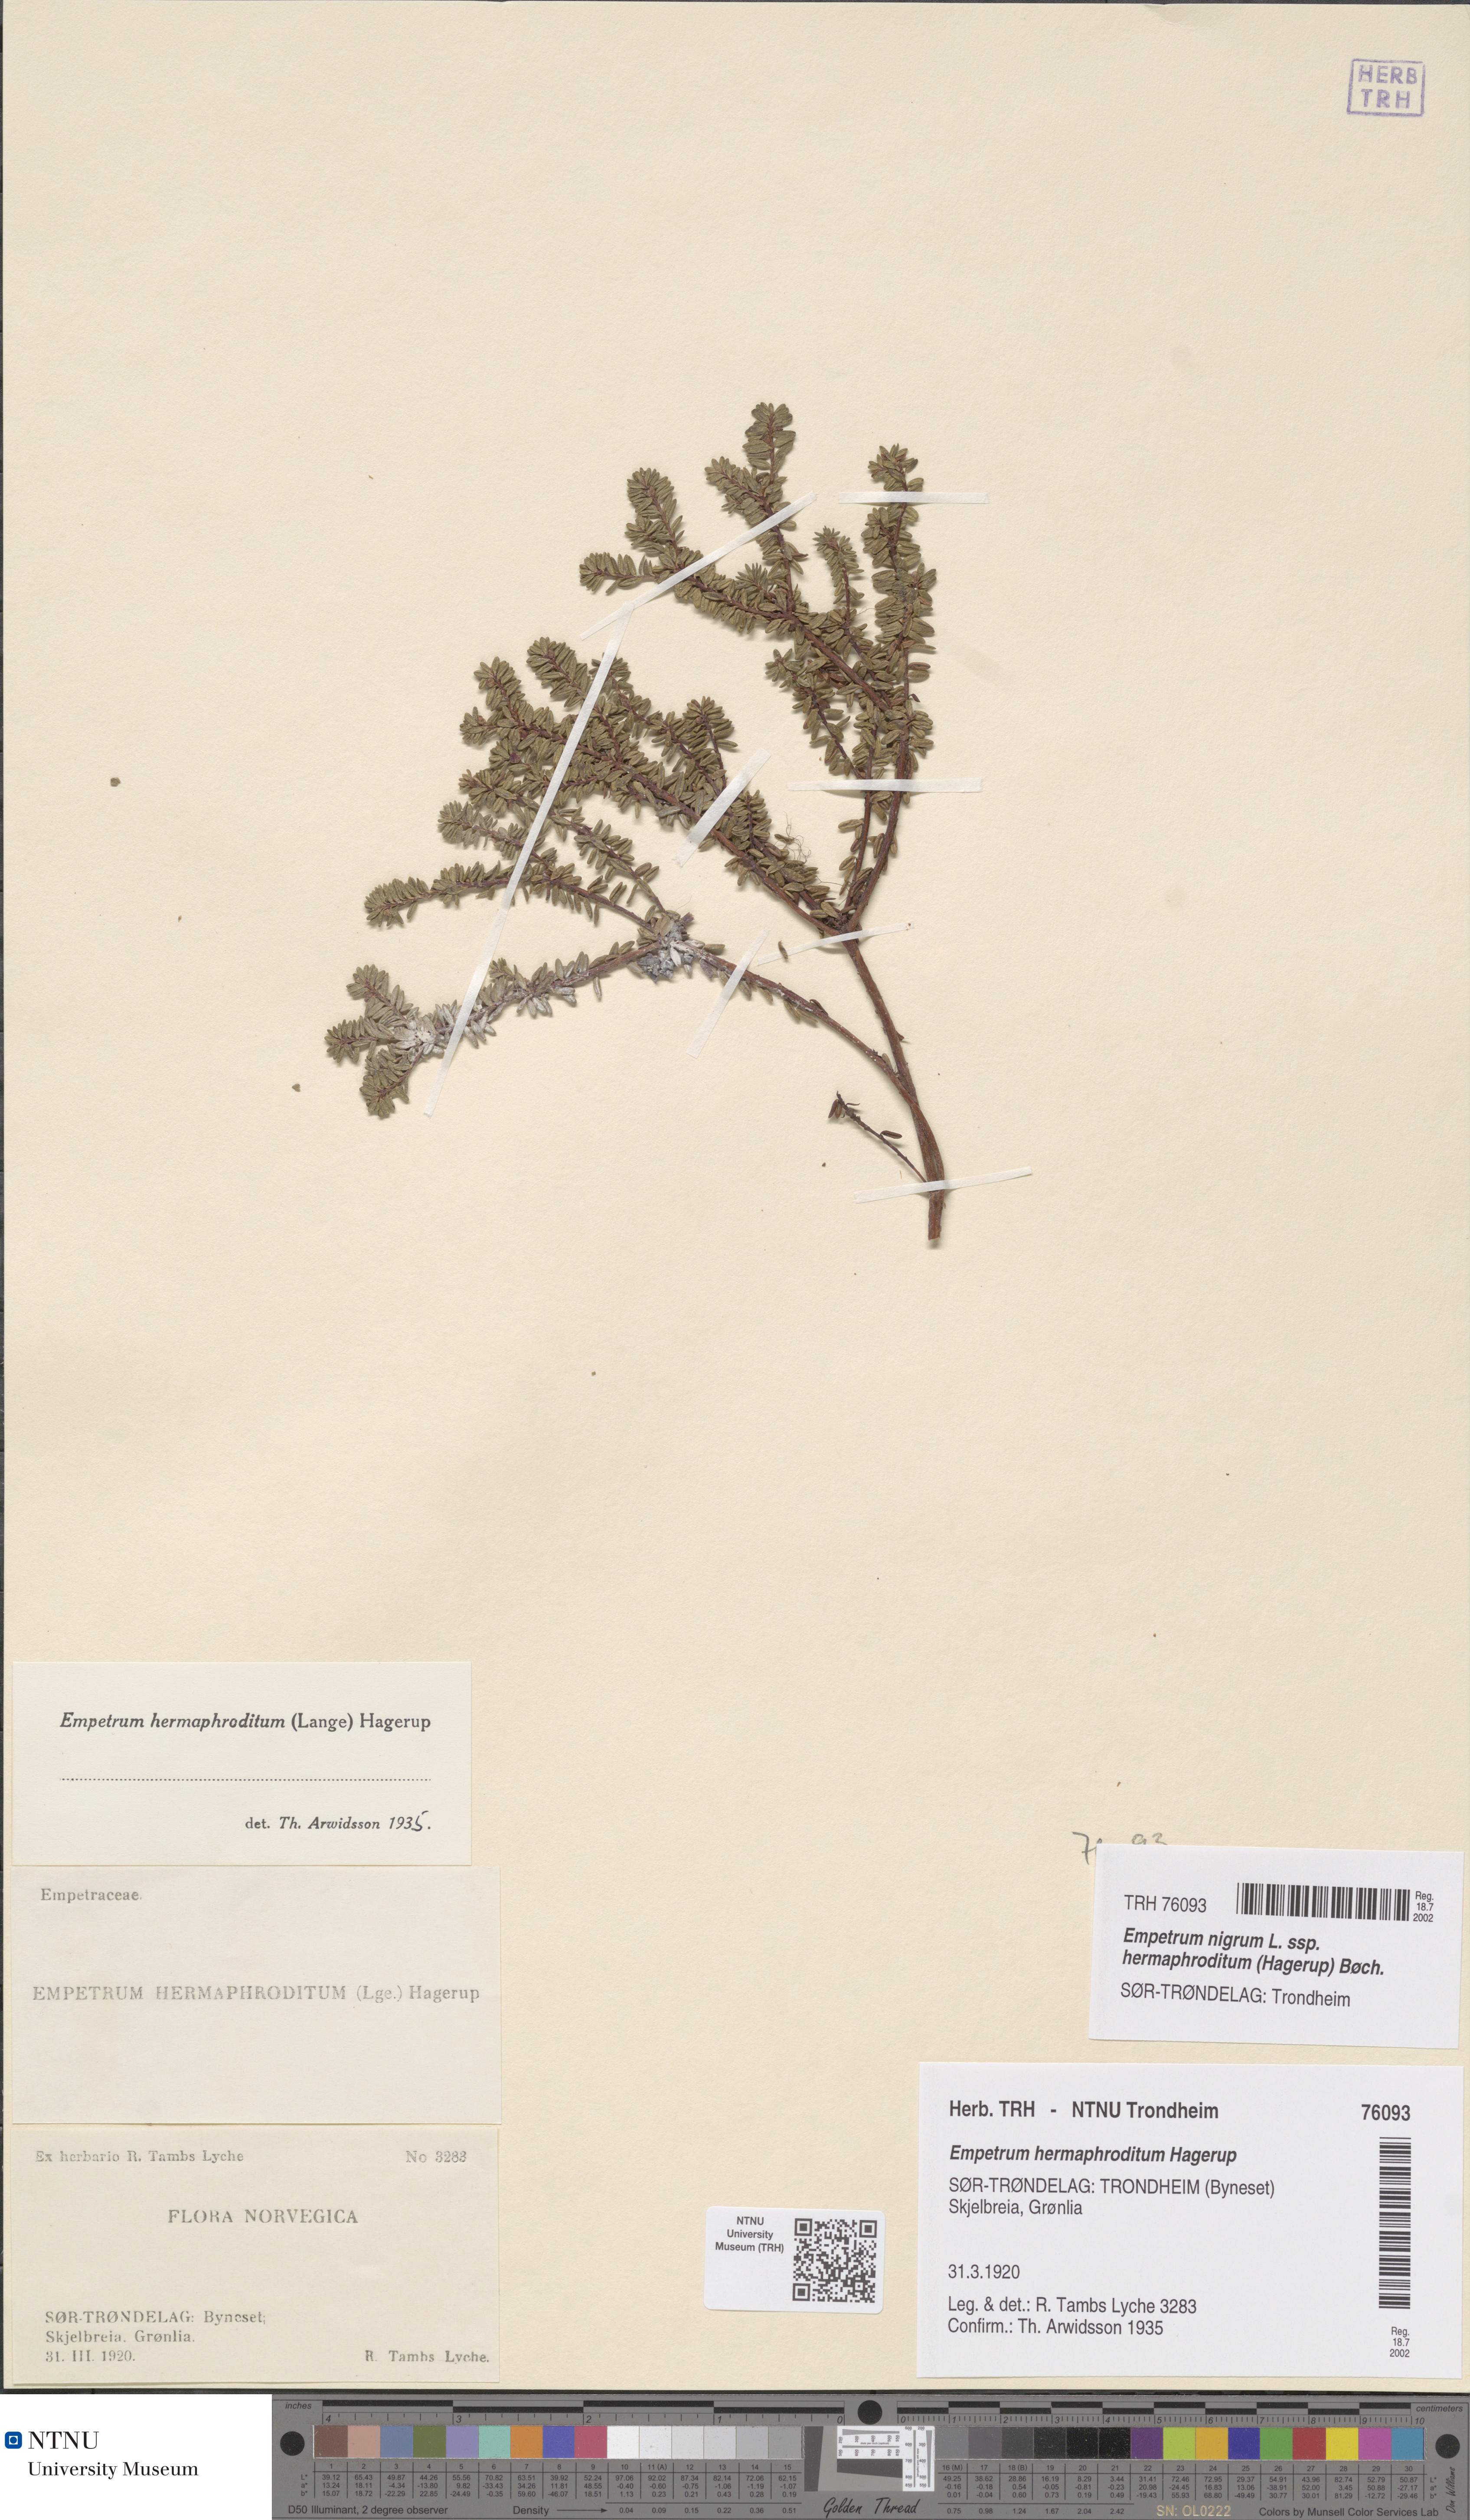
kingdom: Plantae
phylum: Tracheophyta
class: Magnoliopsida
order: Ericales
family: Ericaceae
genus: Empetrum
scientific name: Empetrum hermaphroditum
